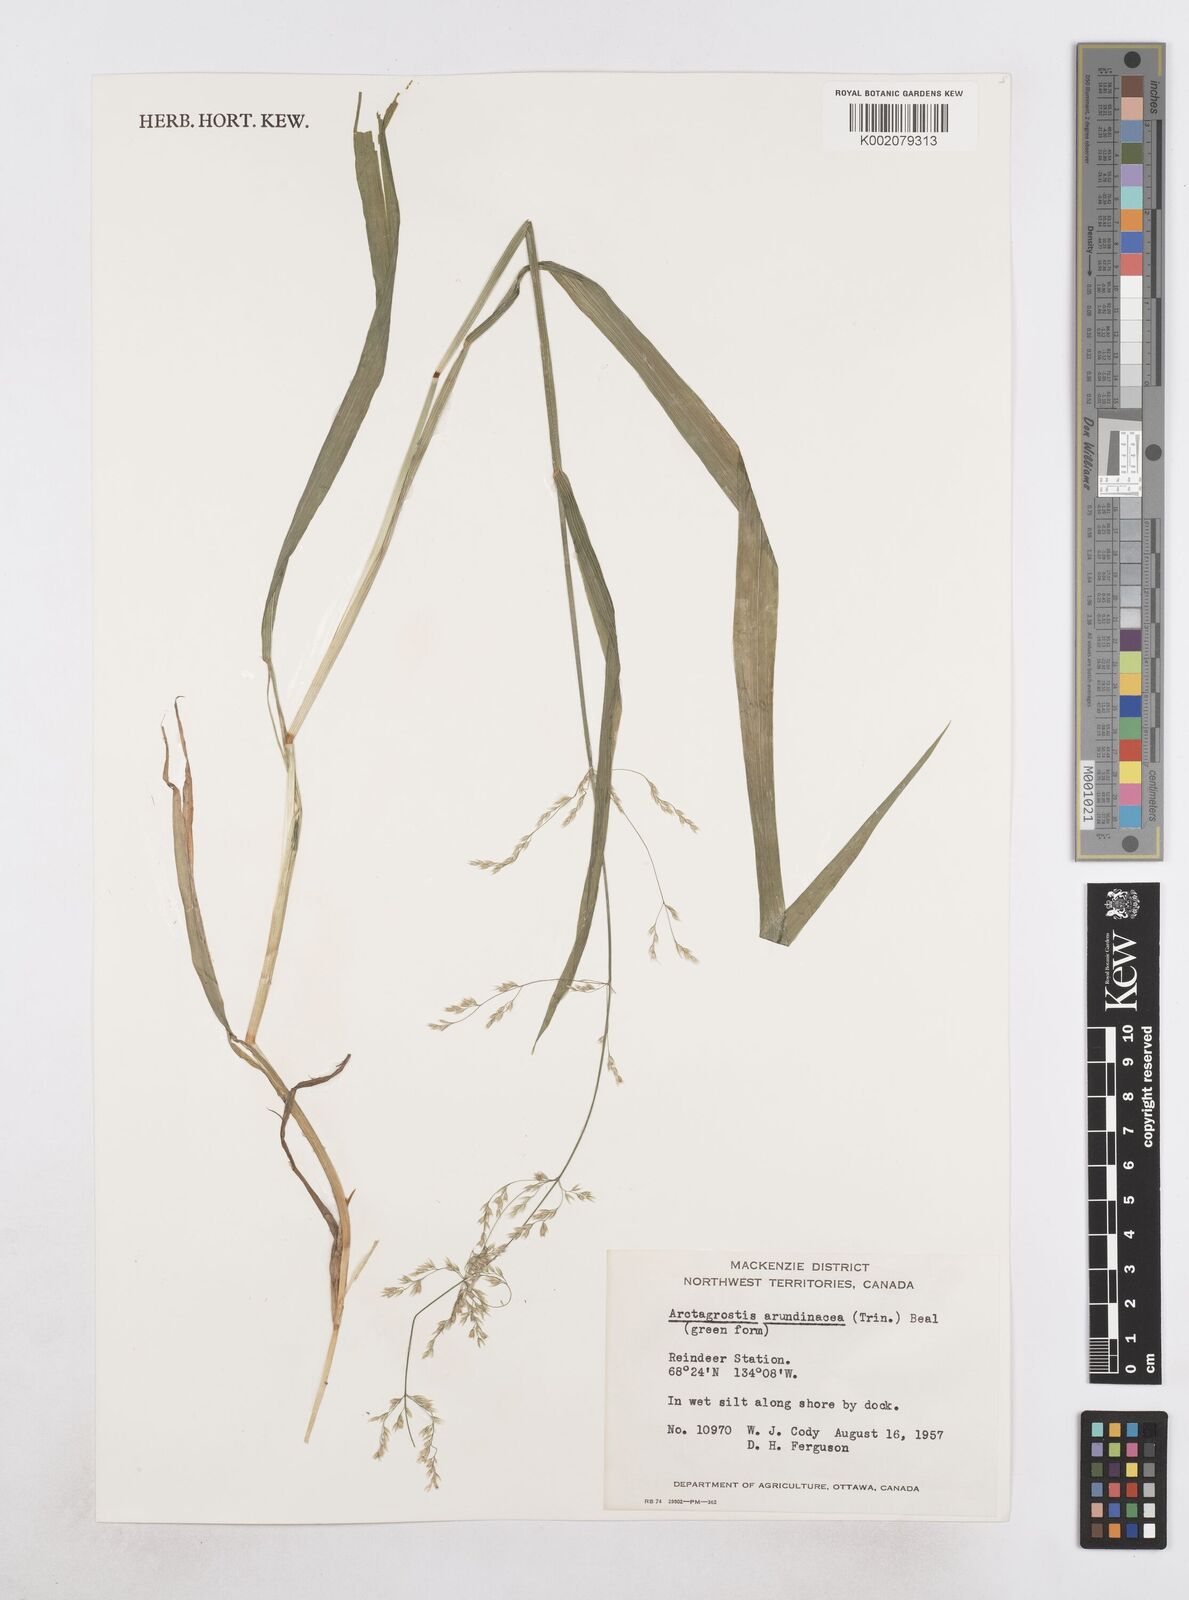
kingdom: Plantae
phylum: Tracheophyta
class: Liliopsida
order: Poales
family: Poaceae
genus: Arctagrostis
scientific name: Arctagrostis arundinacea
